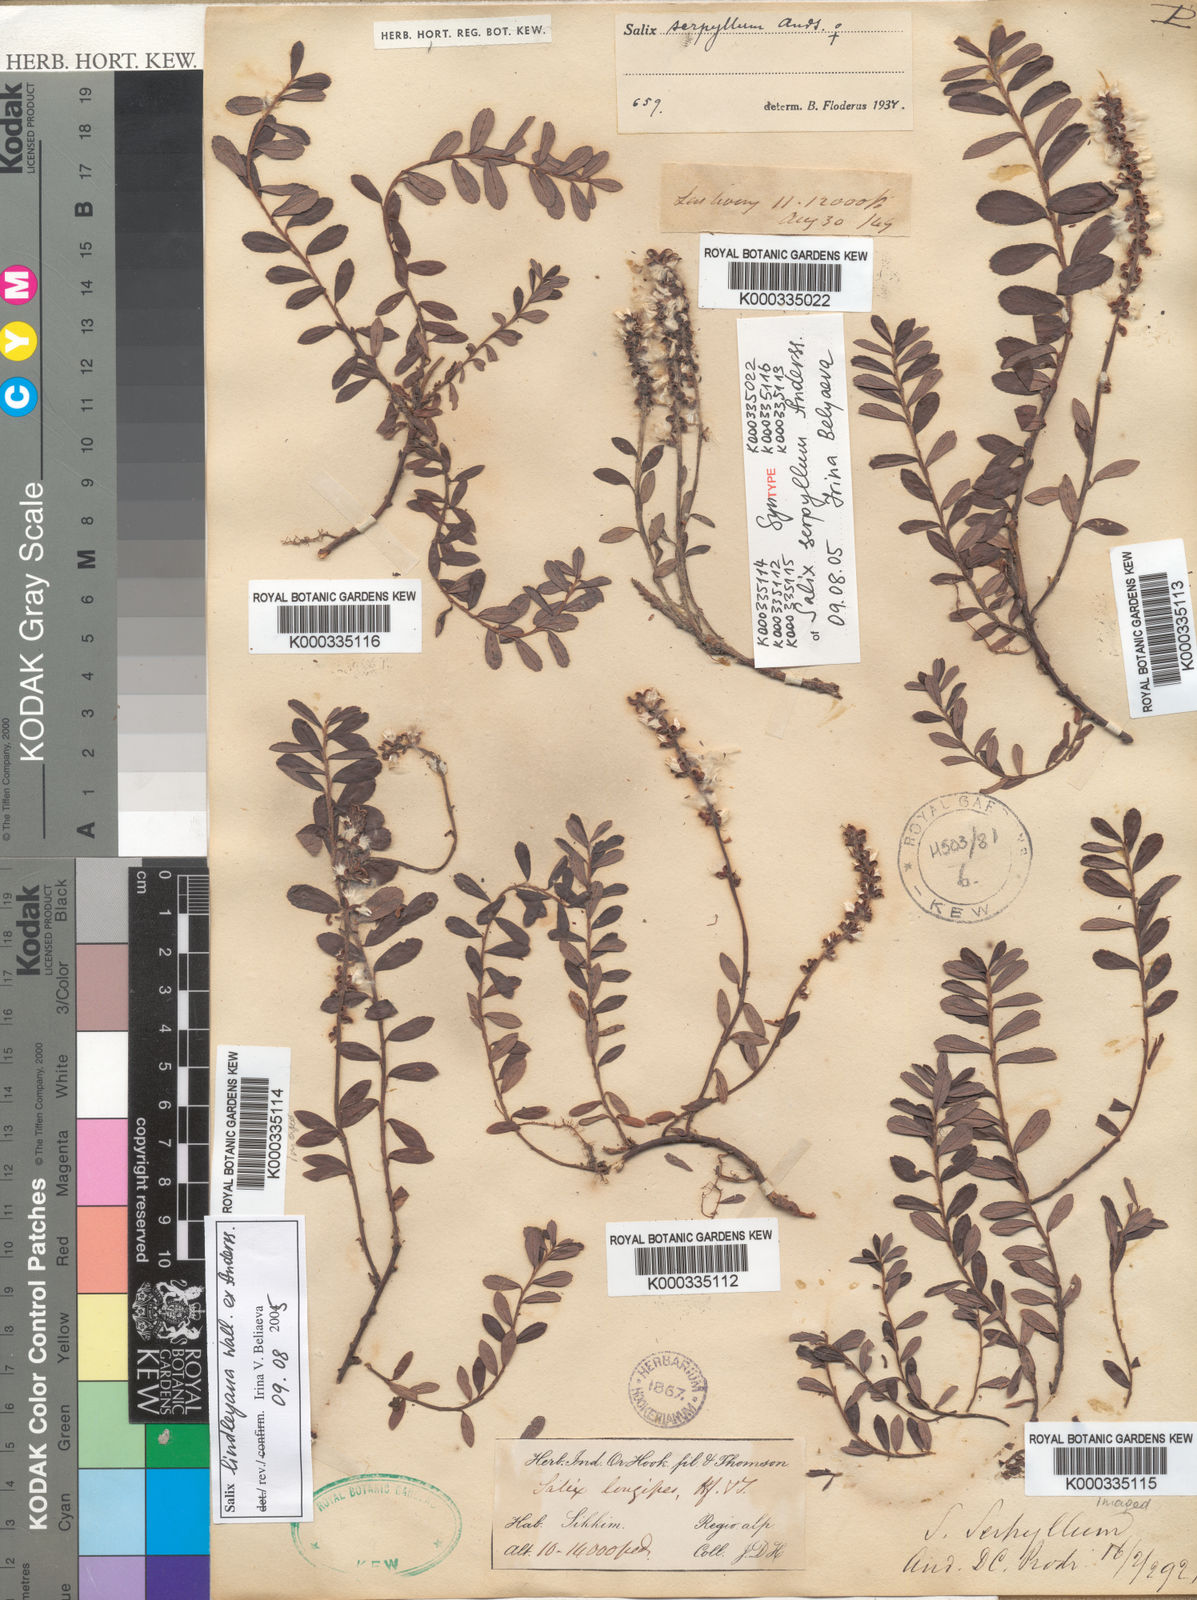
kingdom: Plantae
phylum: Tracheophyta
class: Magnoliopsida
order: Malpighiales
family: Salicaceae
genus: Salix
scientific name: Salix fruticulosa
